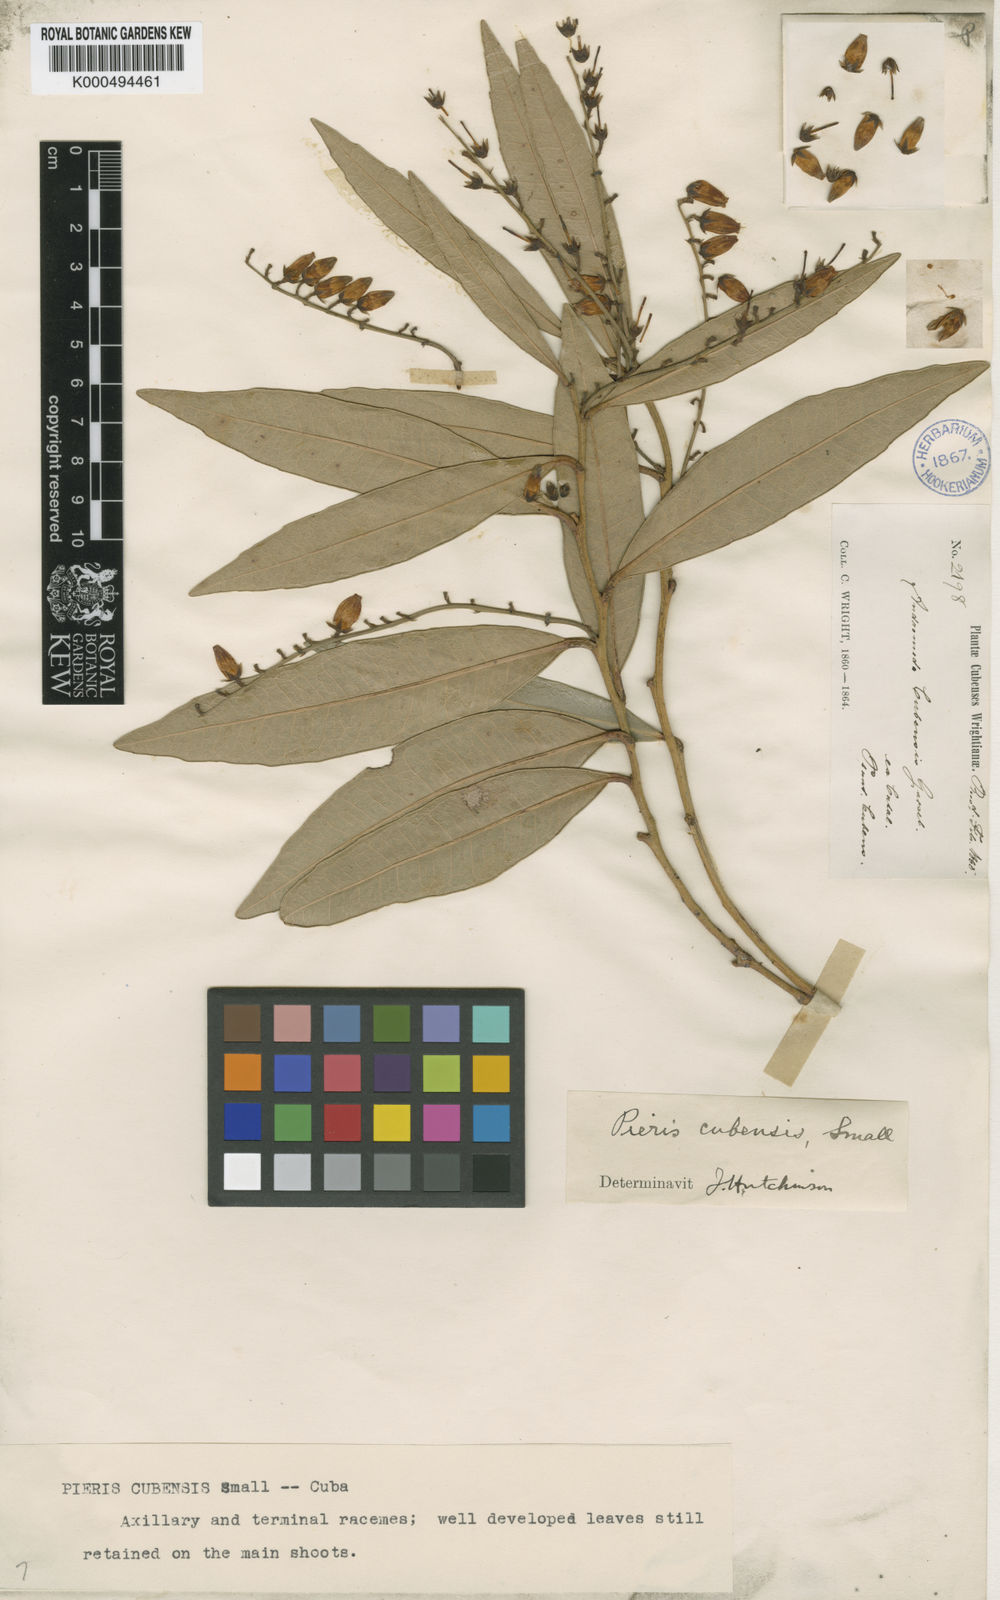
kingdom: Plantae
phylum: Tracheophyta
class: Magnoliopsida
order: Ericales
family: Ericaceae
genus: Pieris
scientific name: Pieris cubensis
